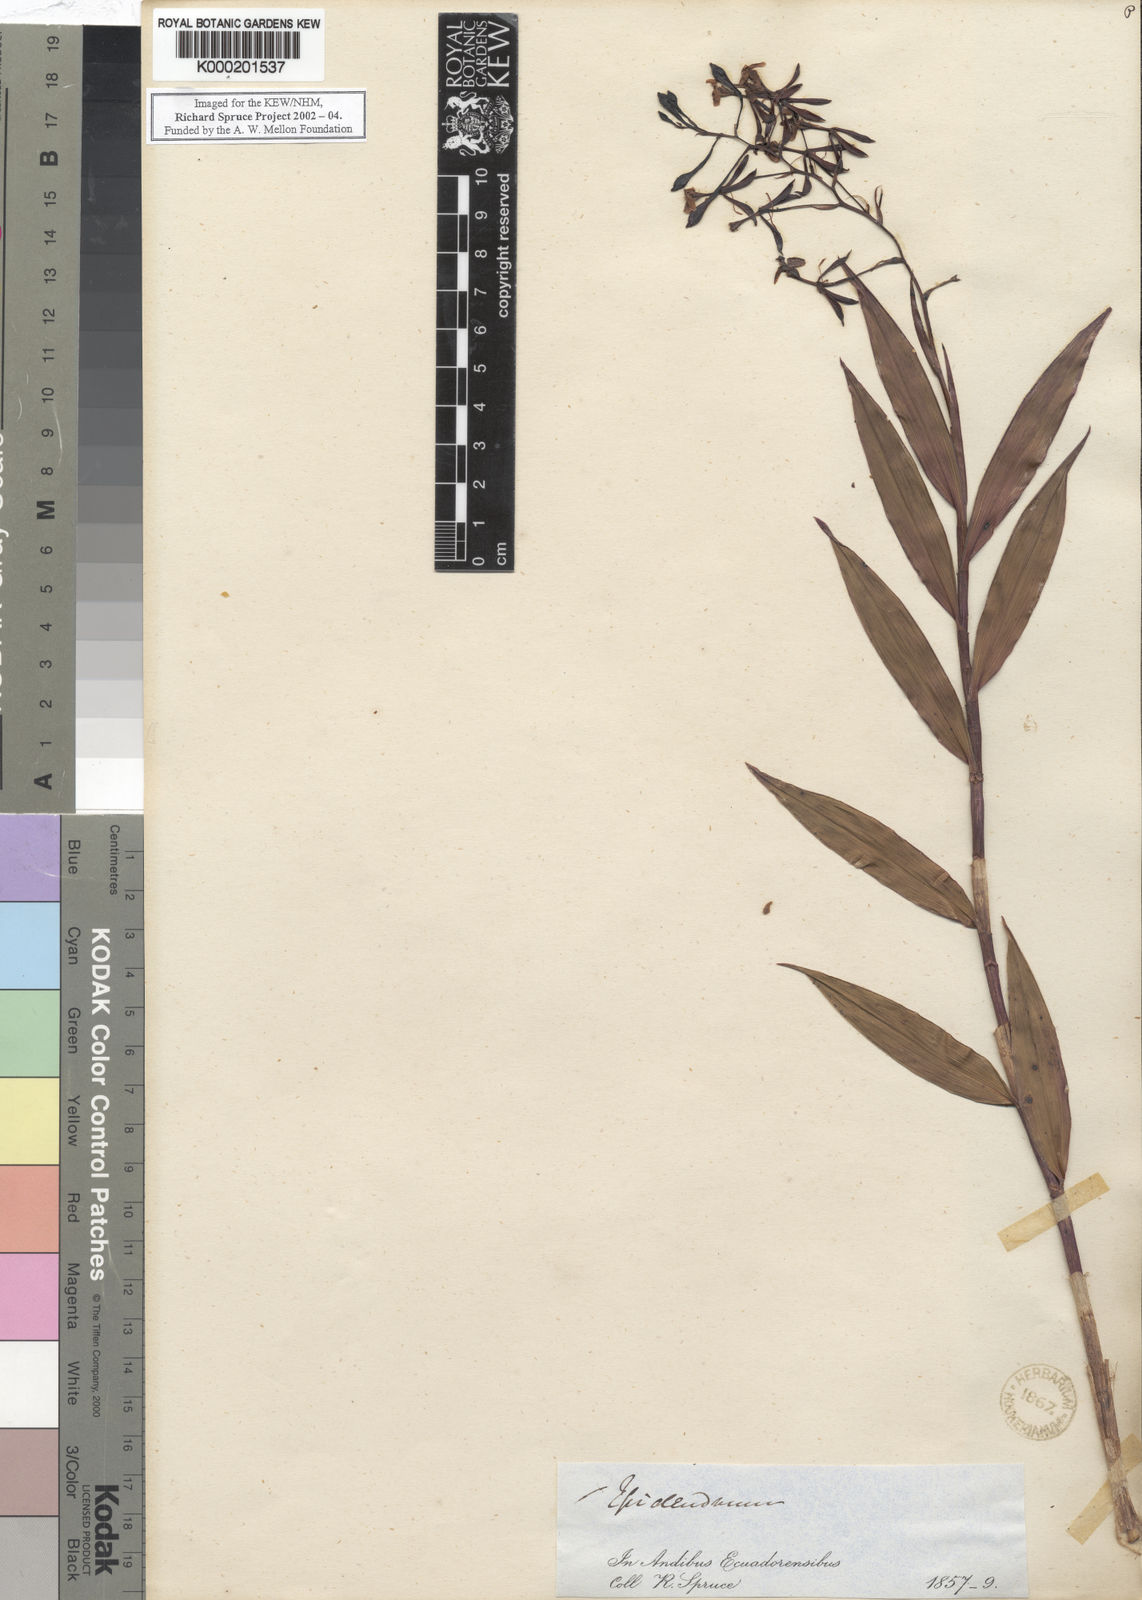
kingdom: Plantae
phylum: Tracheophyta
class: Liliopsida
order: Asparagales
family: Orchidaceae
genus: Epidendrum
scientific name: Epidendrum englerianum
